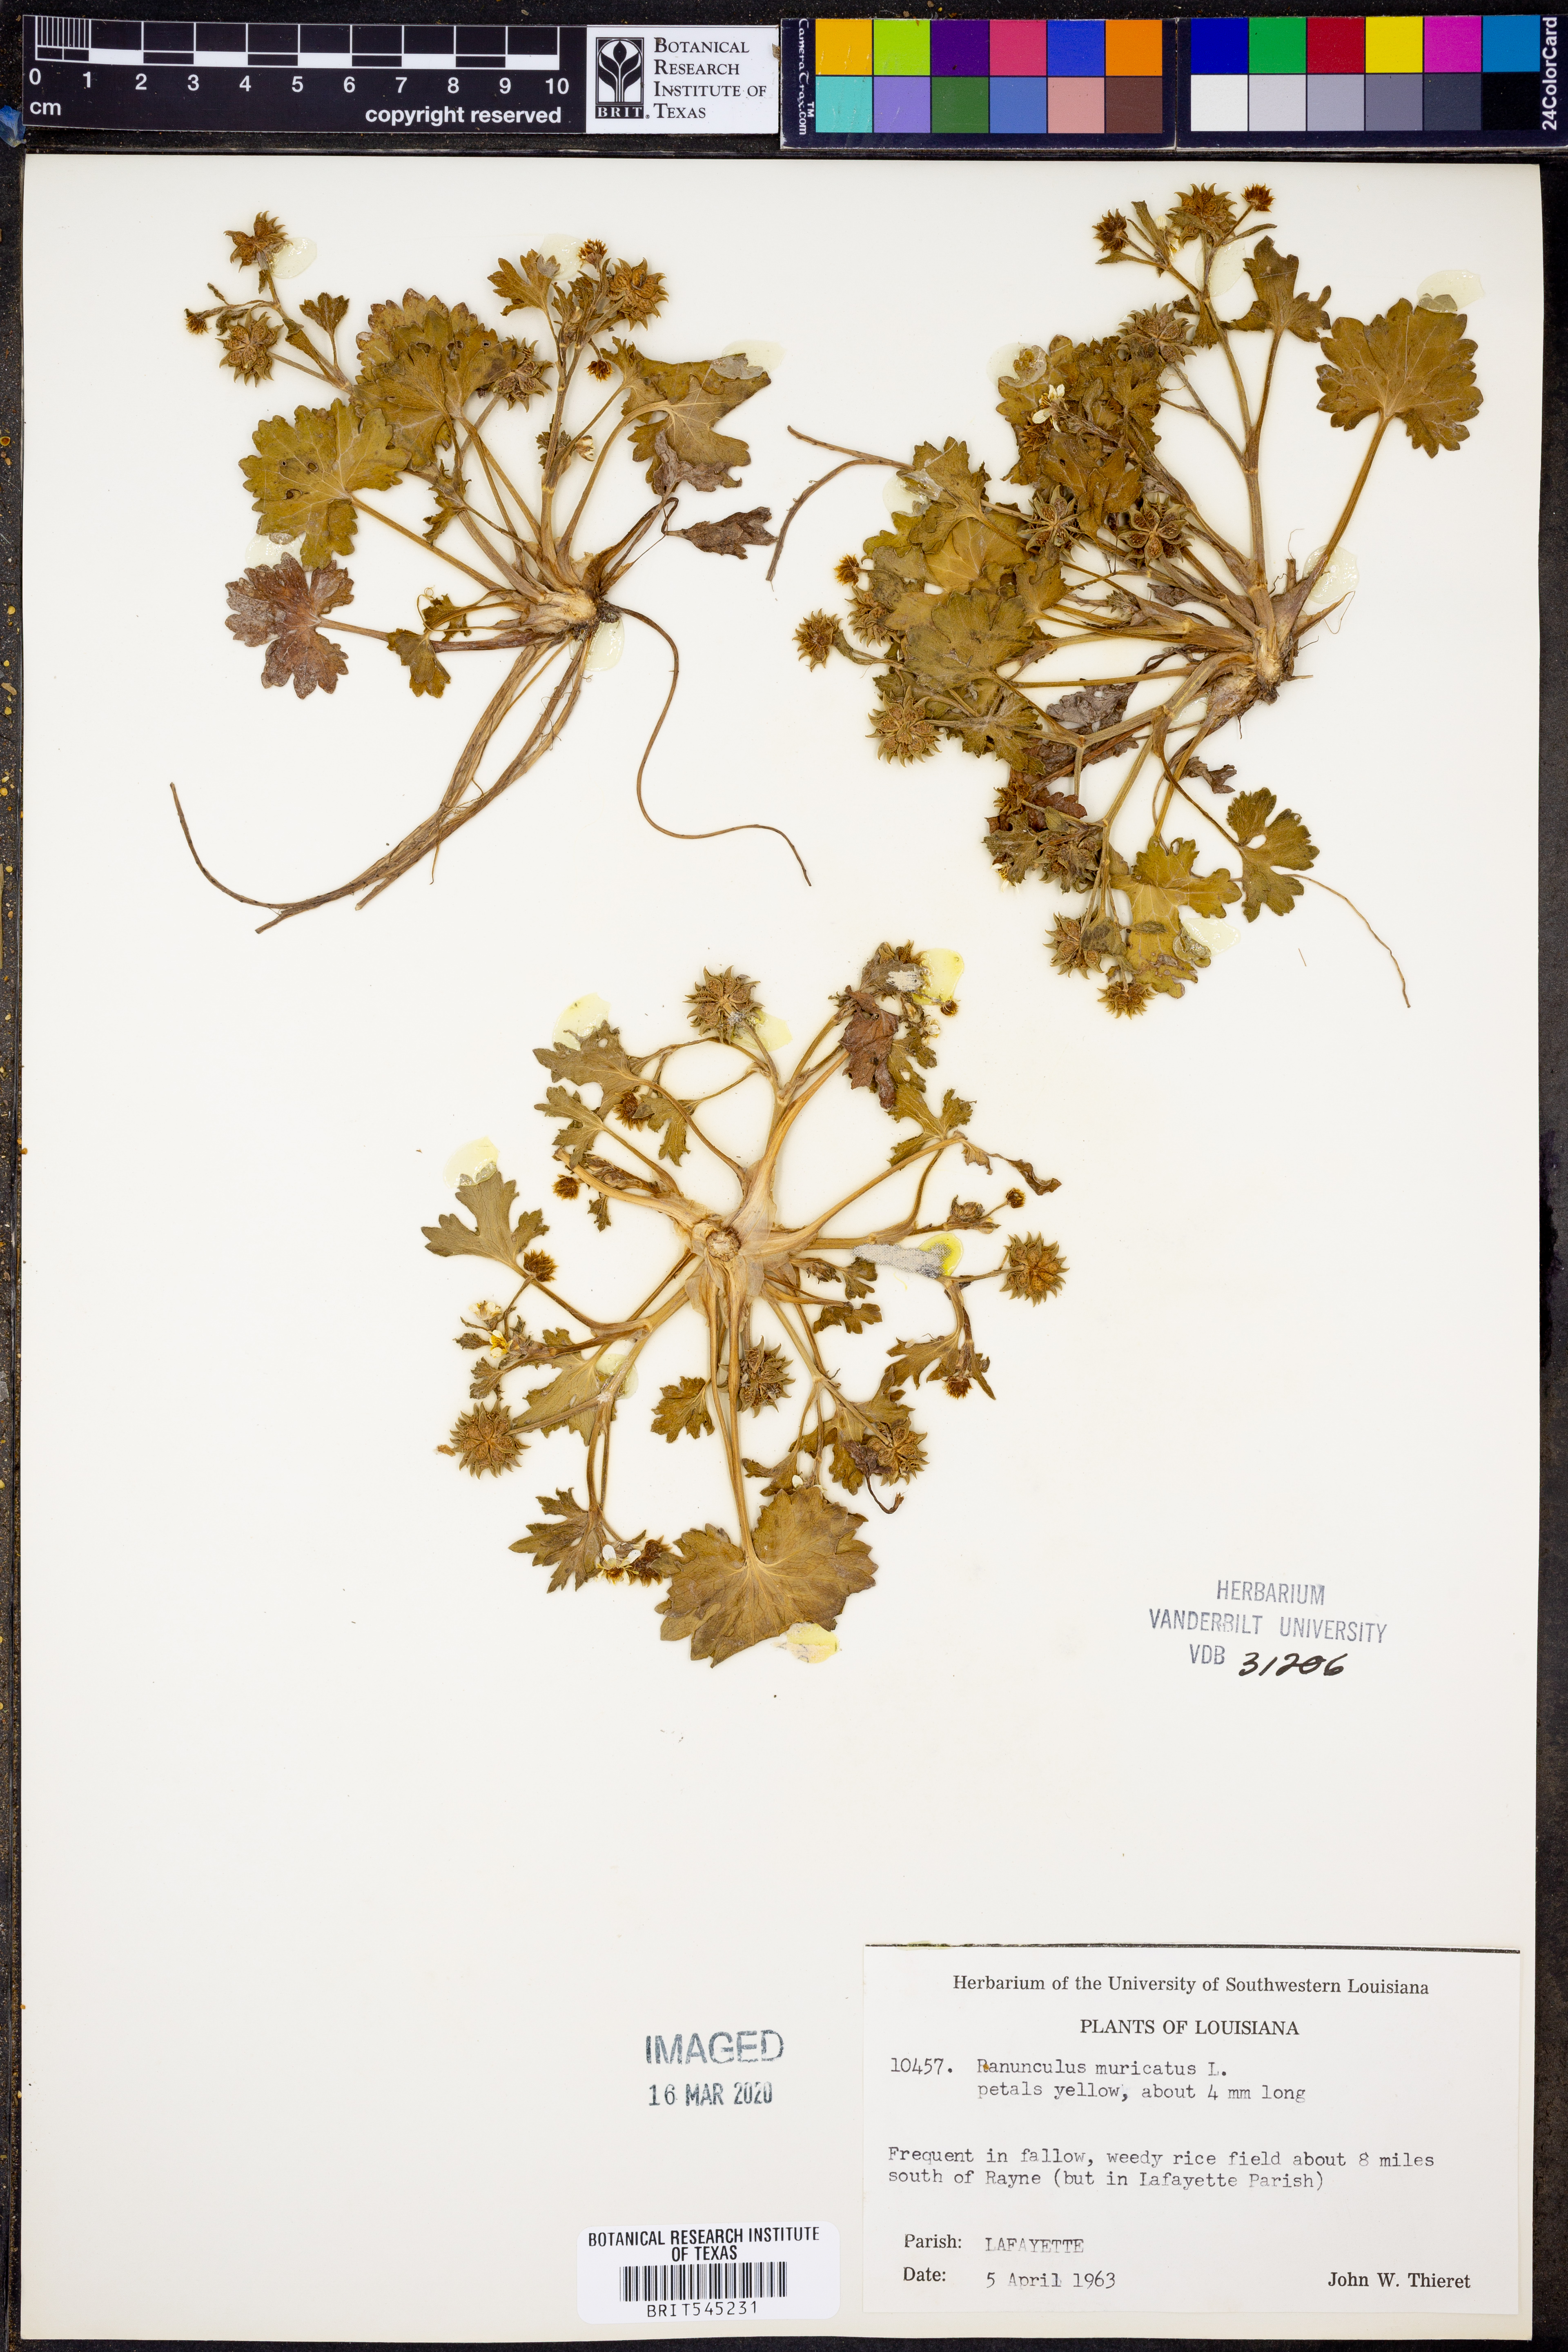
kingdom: Plantae
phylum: Tracheophyta
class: Magnoliopsida
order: Ranunculales
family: Ranunculaceae
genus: Ranunculus
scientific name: Ranunculus muricatus
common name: Rough-fruited buttercup
